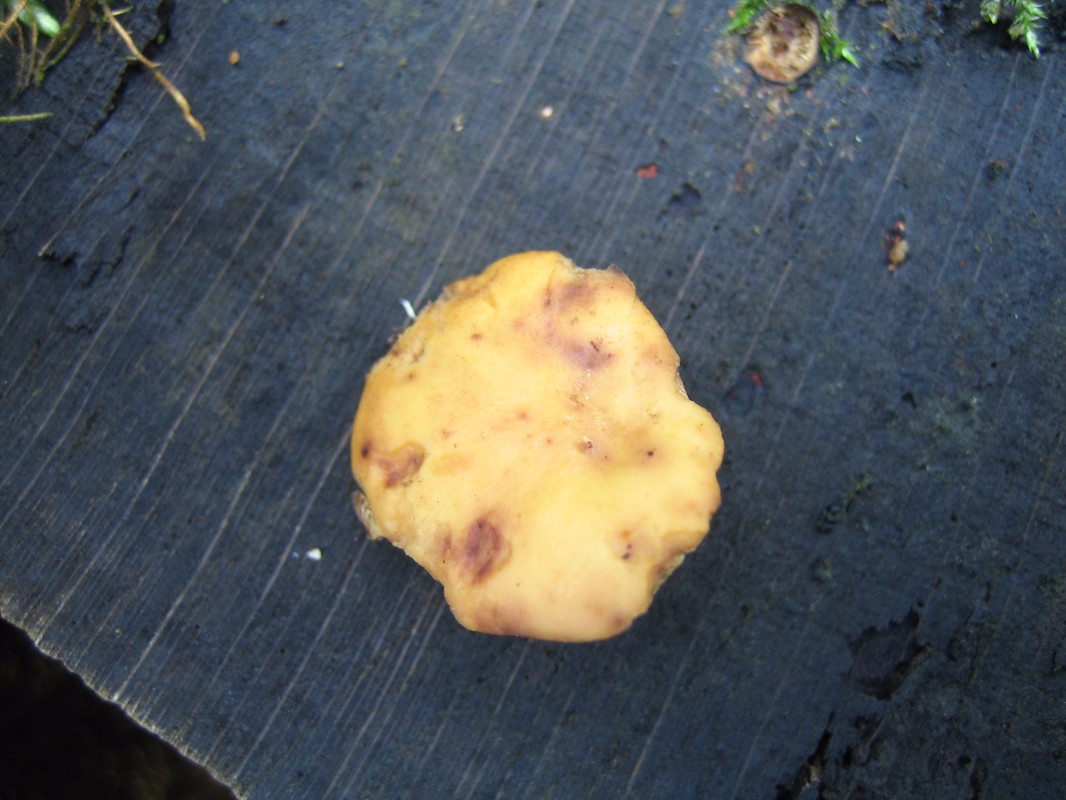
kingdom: Fungi
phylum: Basidiomycota
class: Agaricomycetes
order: Polyporales
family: Polyporaceae
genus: Cerioporus
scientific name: Cerioporus varius
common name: foranderlig stilkporesvamp
